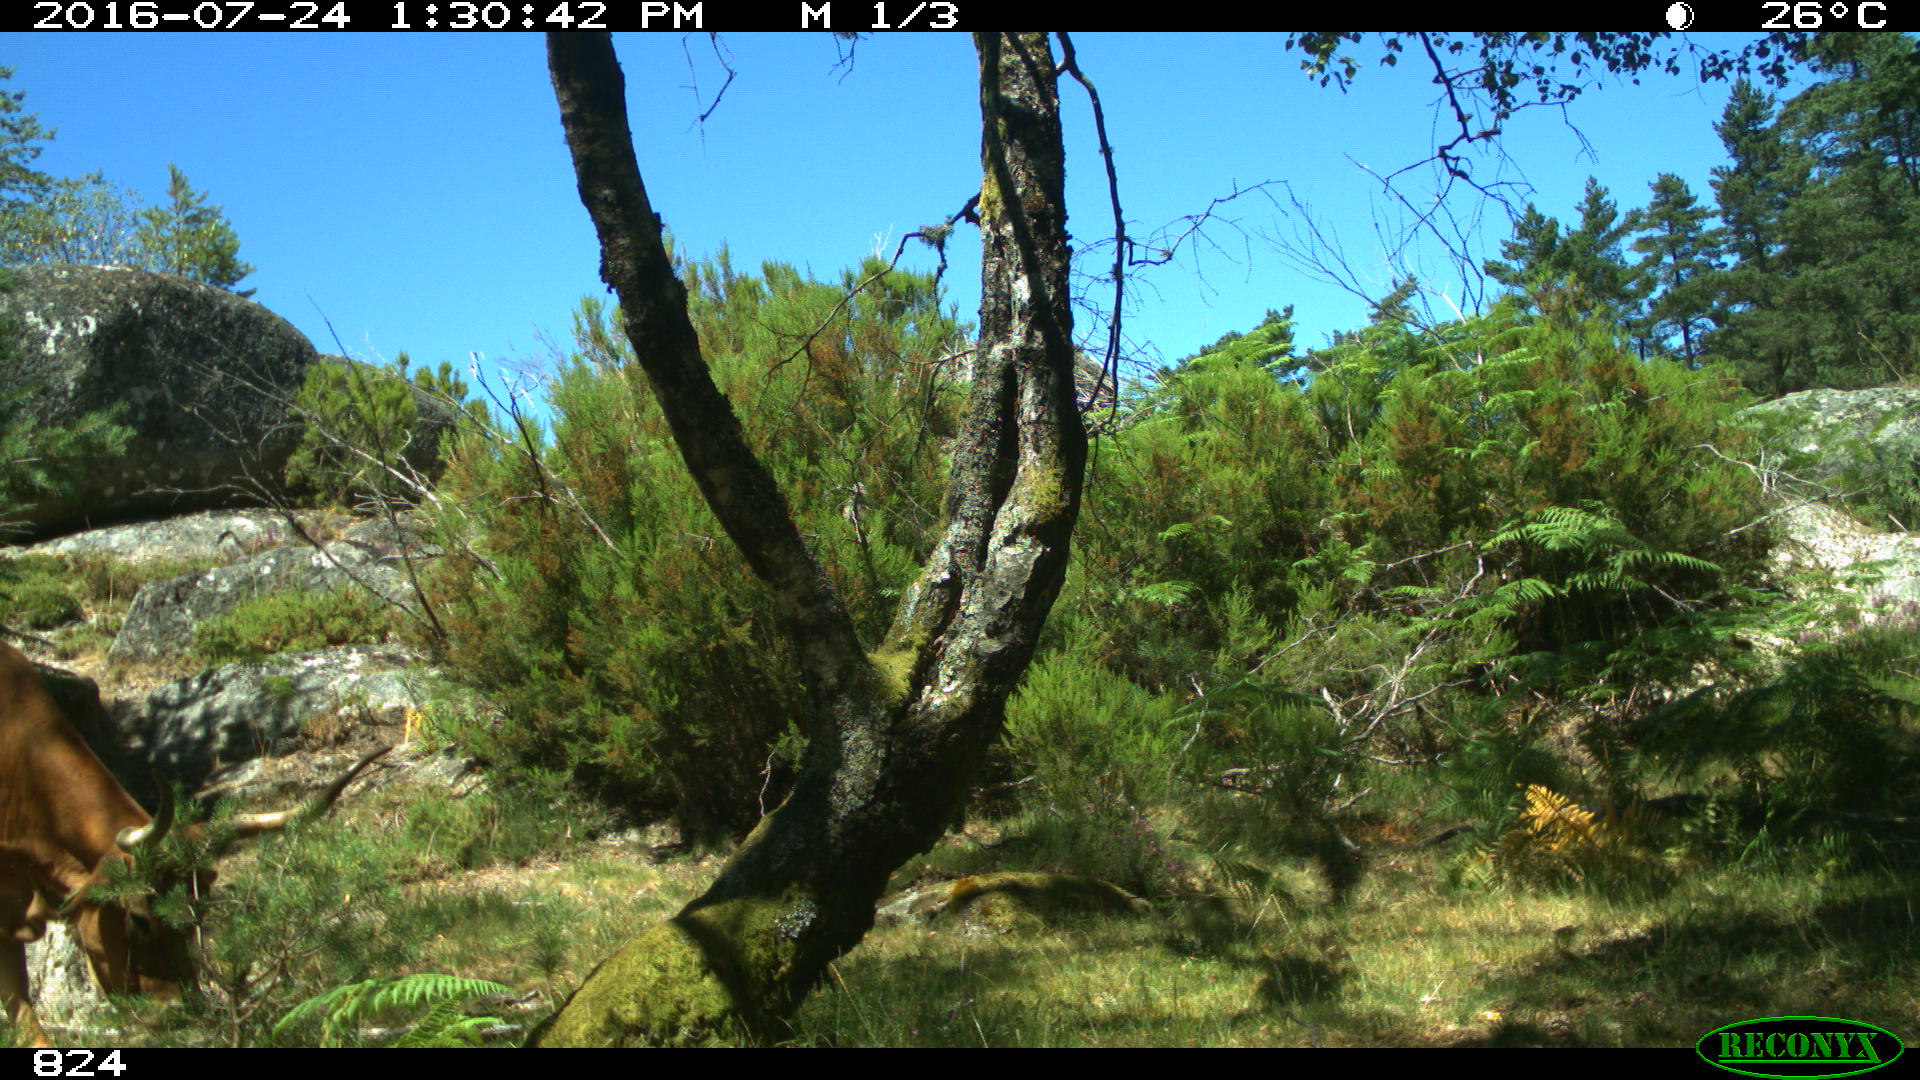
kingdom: Animalia
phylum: Chordata
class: Mammalia
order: Artiodactyla
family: Bovidae
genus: Bos
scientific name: Bos taurus
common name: Domesticated cattle
